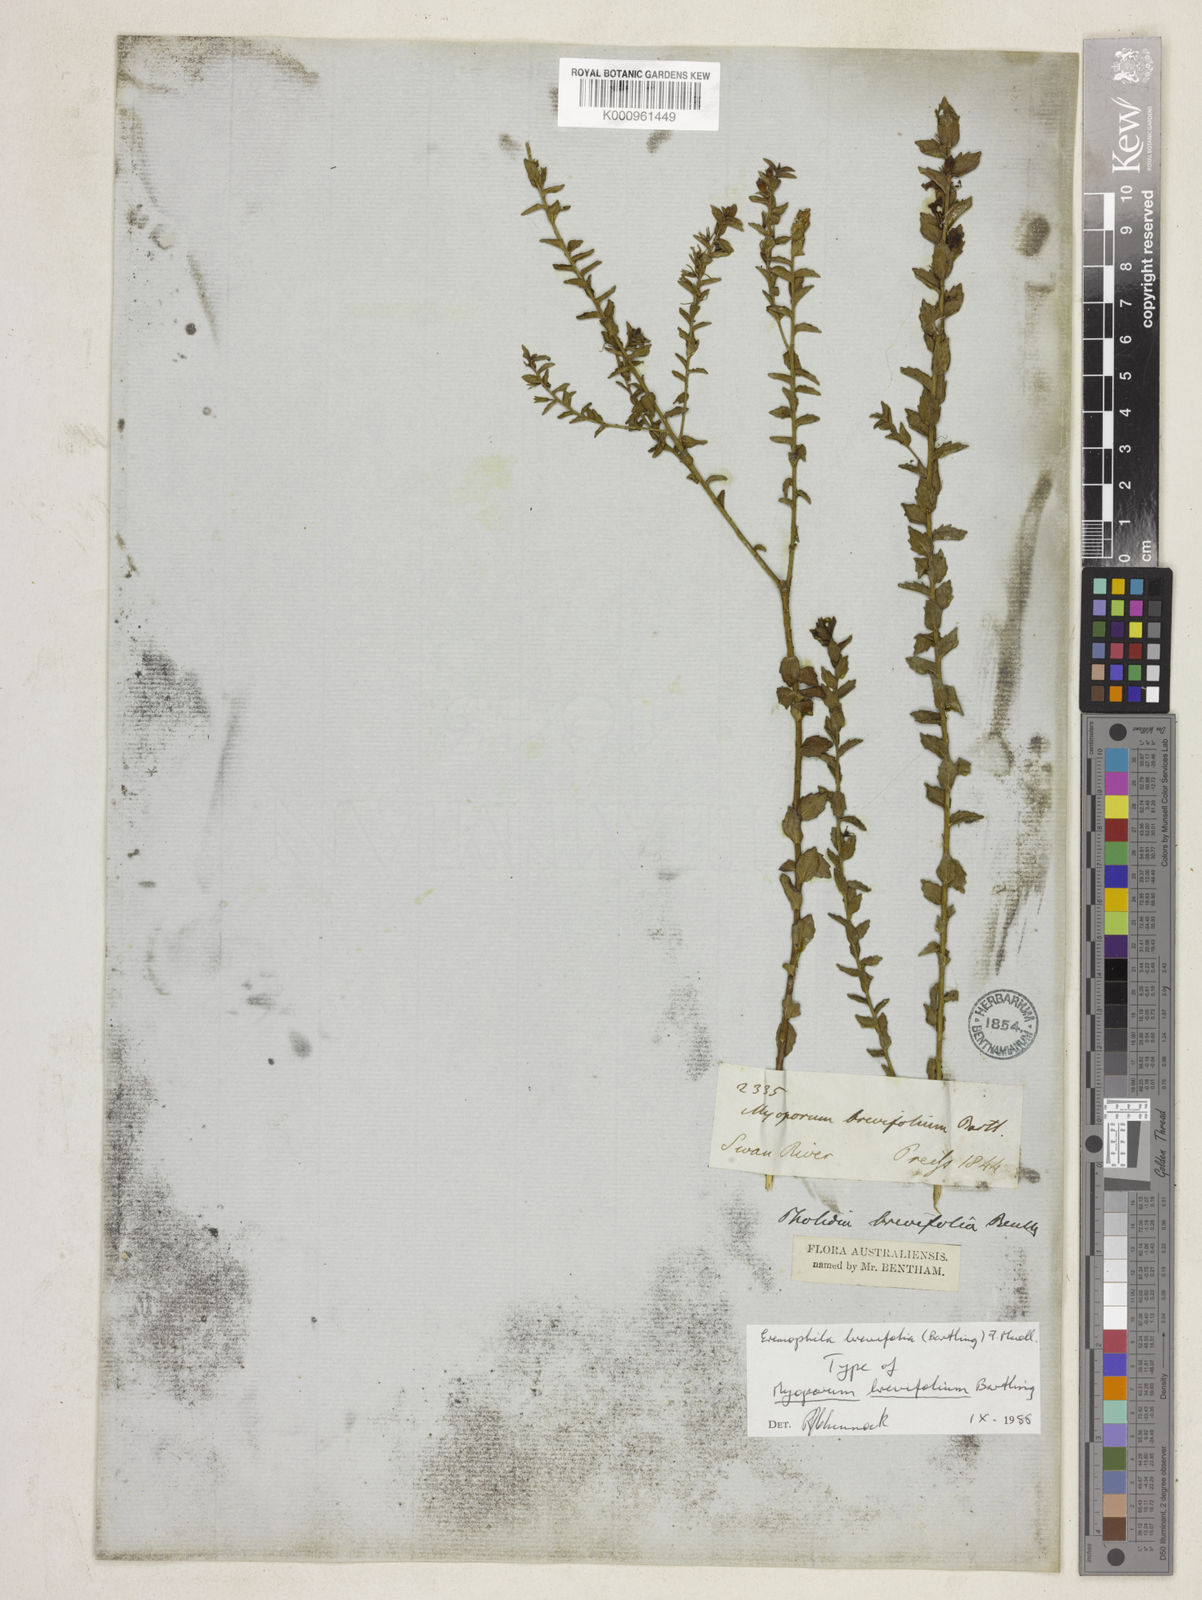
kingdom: Plantae
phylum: Tracheophyta
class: Magnoliopsida
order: Lamiales
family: Scrophulariaceae
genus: Eremophila
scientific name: Eremophila brevifolia
